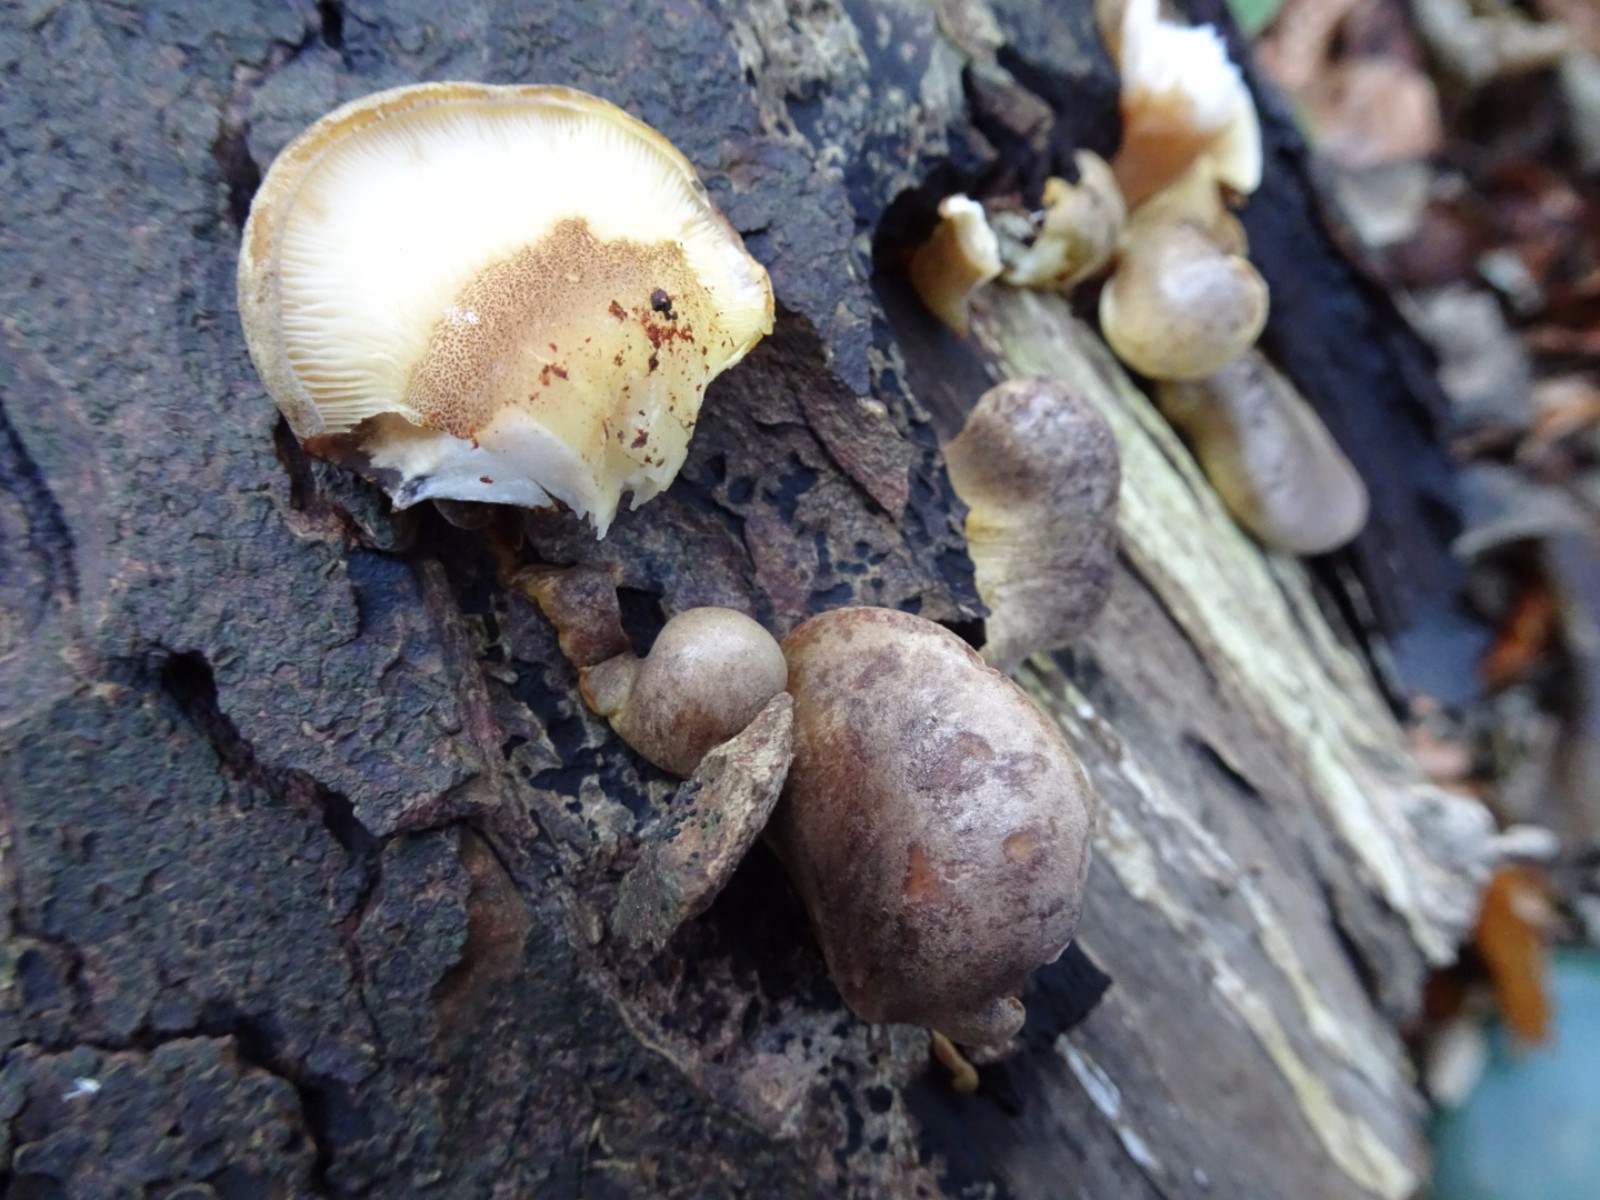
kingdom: Fungi
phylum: Basidiomycota
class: Agaricomycetes
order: Agaricales
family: Sarcomyxaceae
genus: Sarcomyxa
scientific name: Sarcomyxa serotina
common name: gummihat
